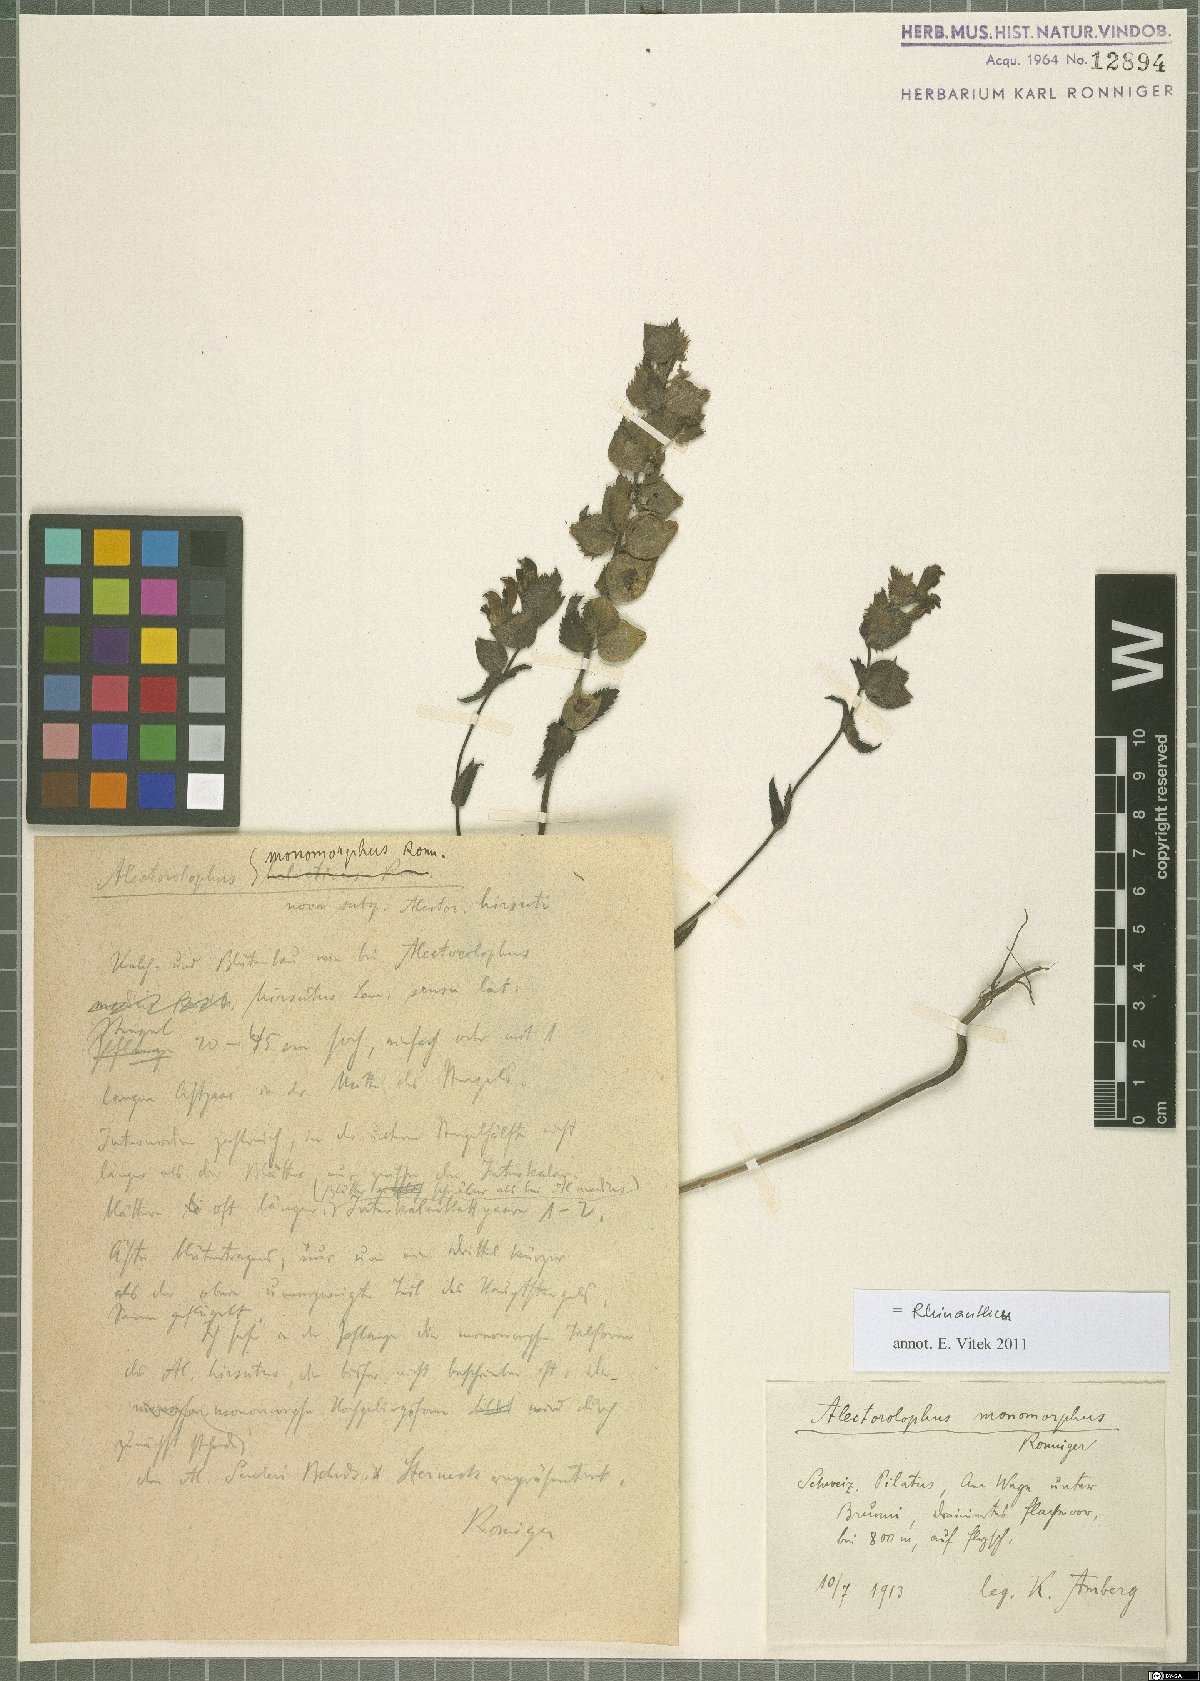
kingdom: Plantae
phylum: Tracheophyta
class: Magnoliopsida
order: Lamiales
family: Orobanchaceae
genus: Rhinanthus
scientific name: Rhinanthus
